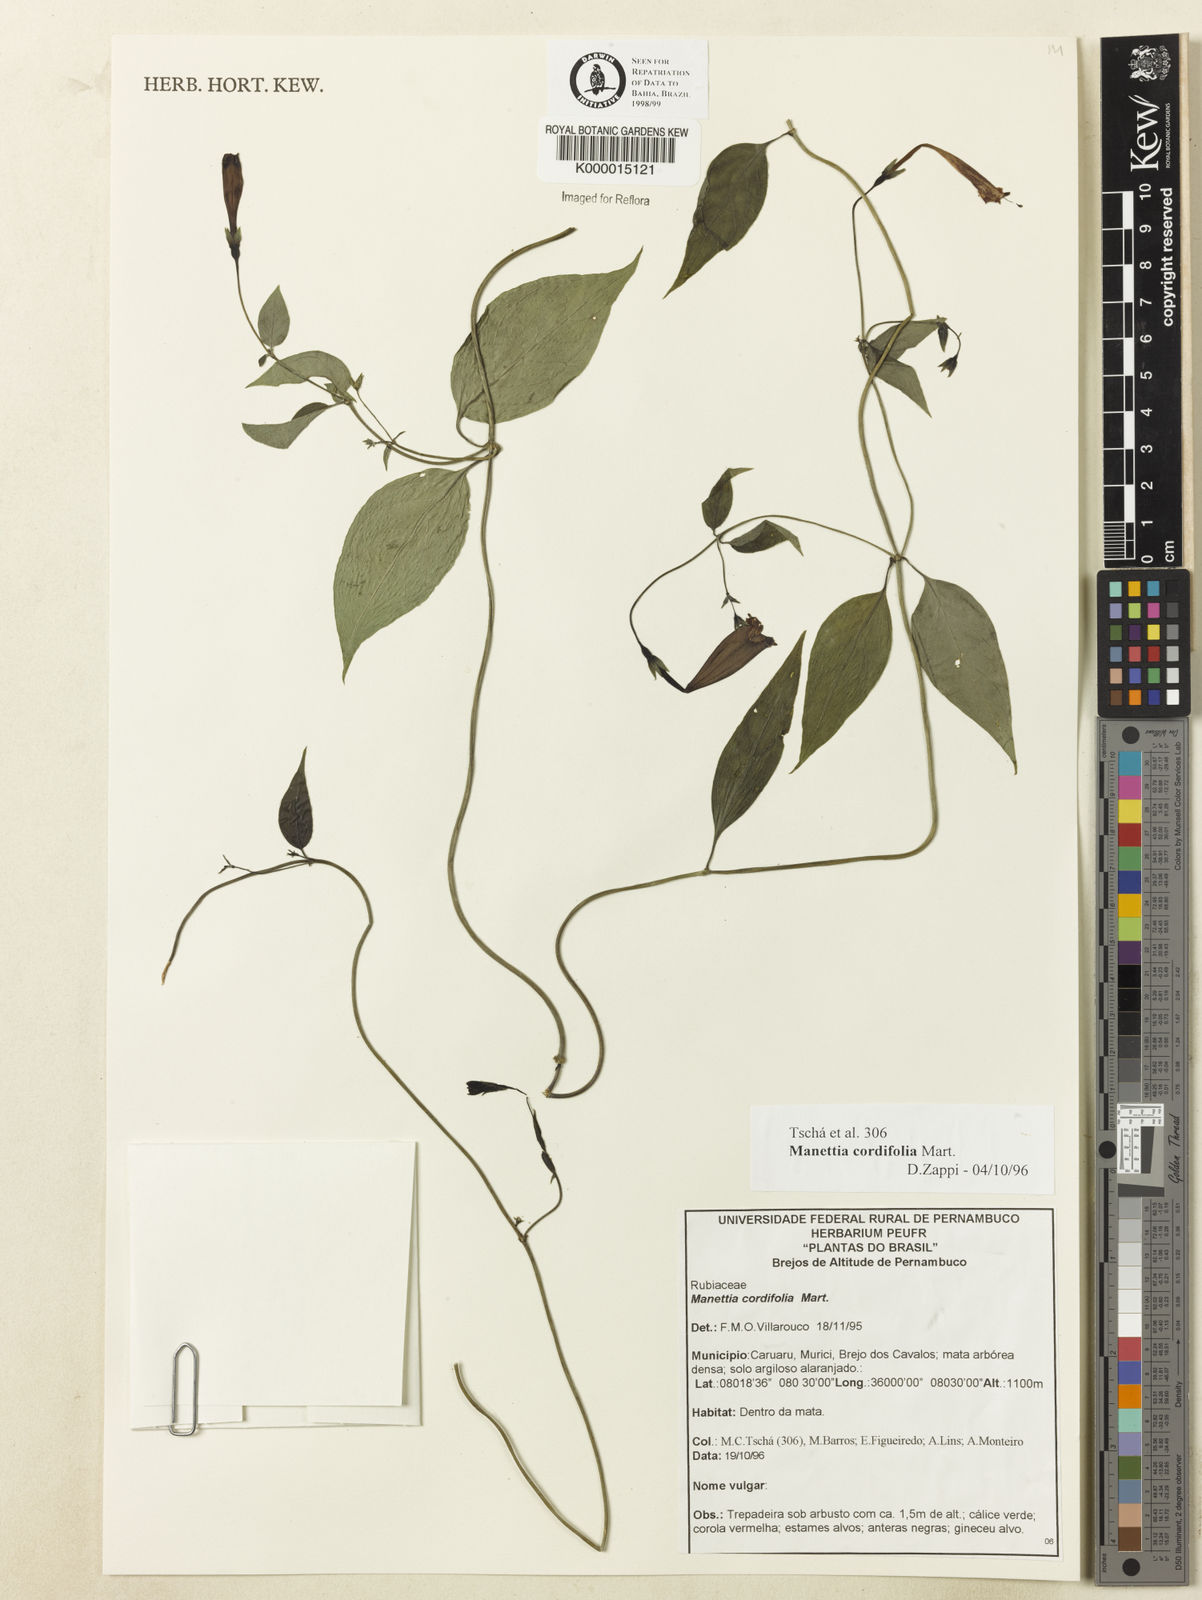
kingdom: Plantae
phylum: Tracheophyta
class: Magnoliopsida
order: Gentianales
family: Rubiaceae
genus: Manettia
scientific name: Manettia cordifolia
